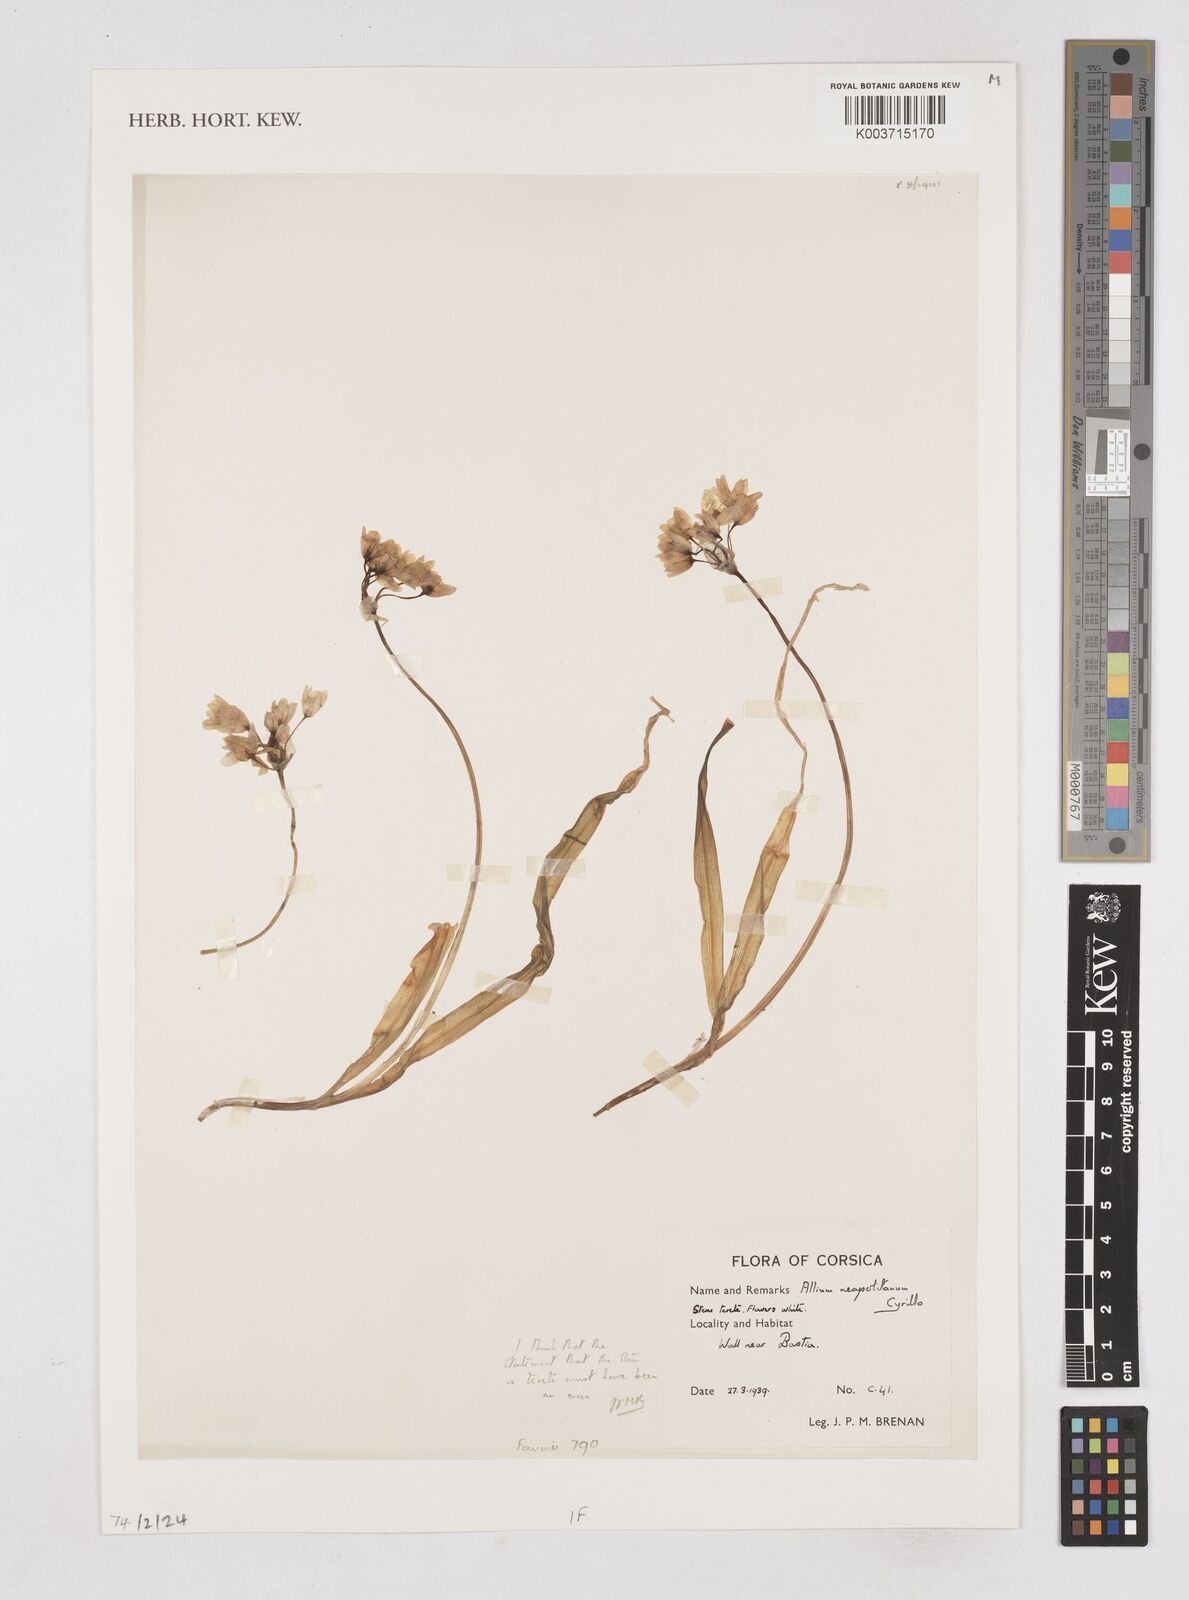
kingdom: Plantae
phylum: Tracheophyta
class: Liliopsida
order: Asparagales
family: Amaryllidaceae
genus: Allium
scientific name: Allium neapolitanum
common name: Neapolitan garlic
